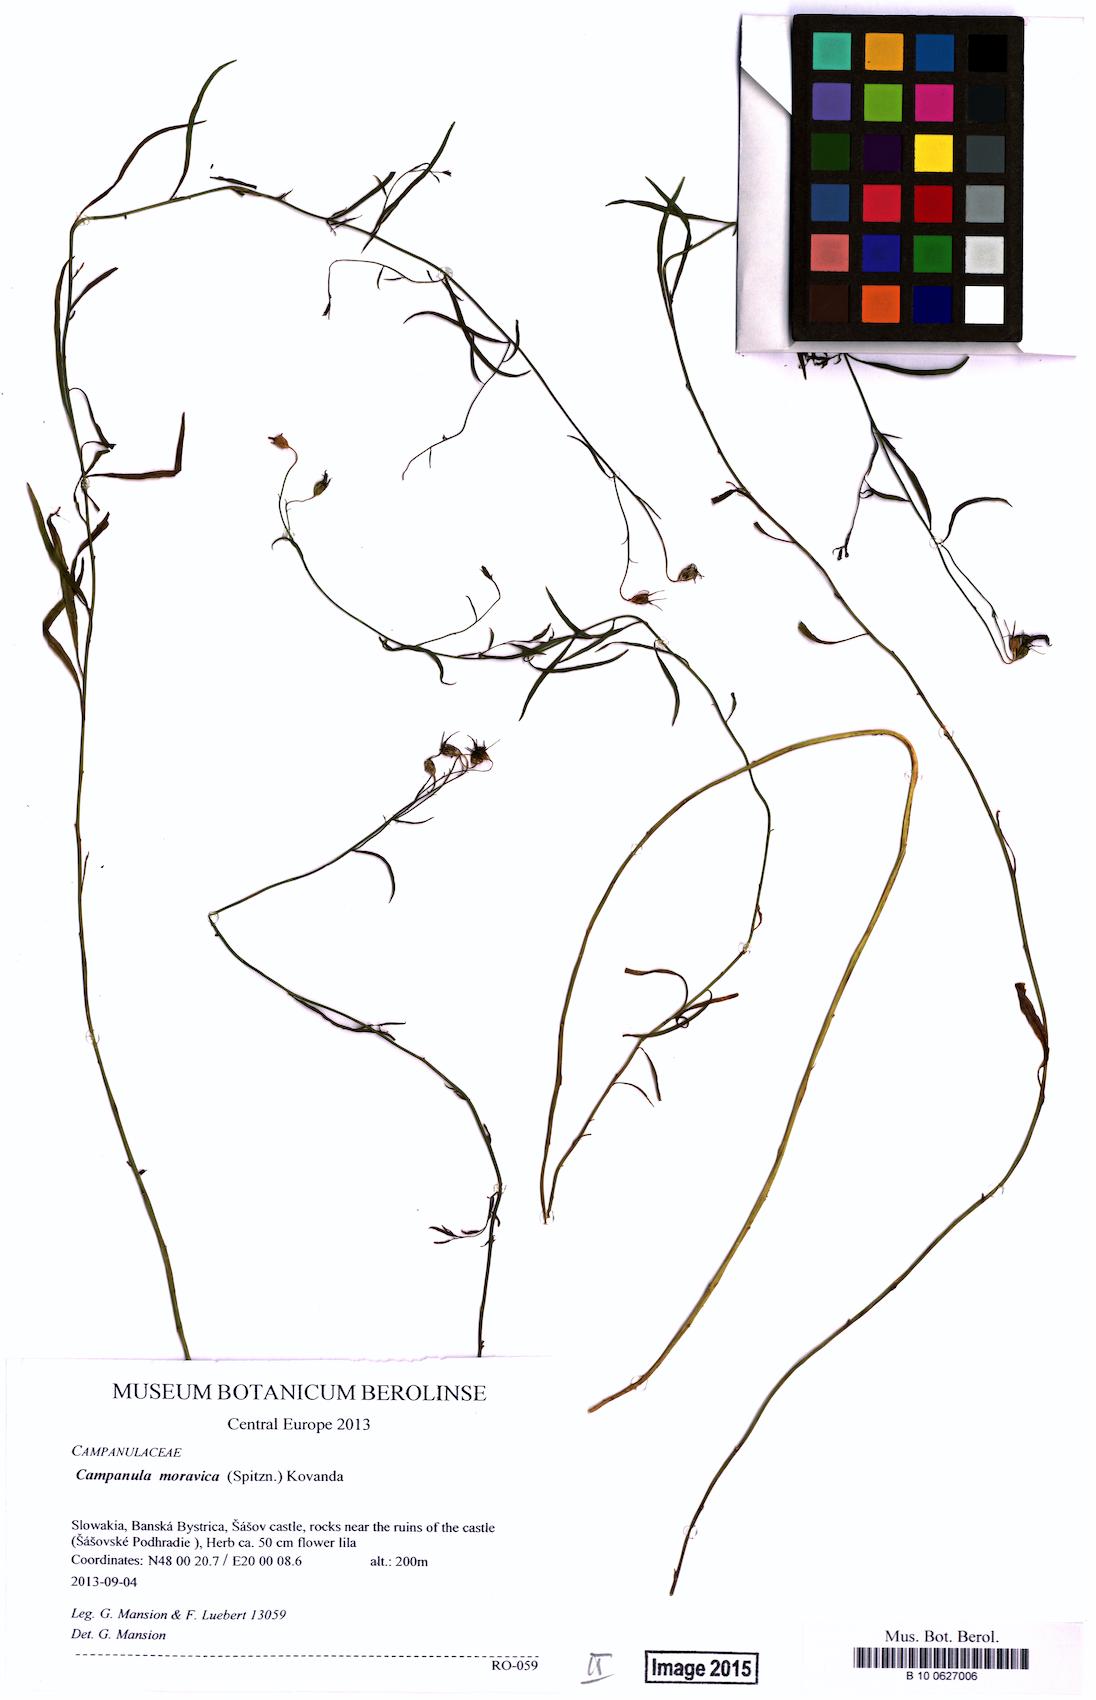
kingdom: Plantae
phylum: Tracheophyta
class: Magnoliopsida
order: Asterales
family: Campanulaceae
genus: Campanula
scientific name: Campanula moravica
